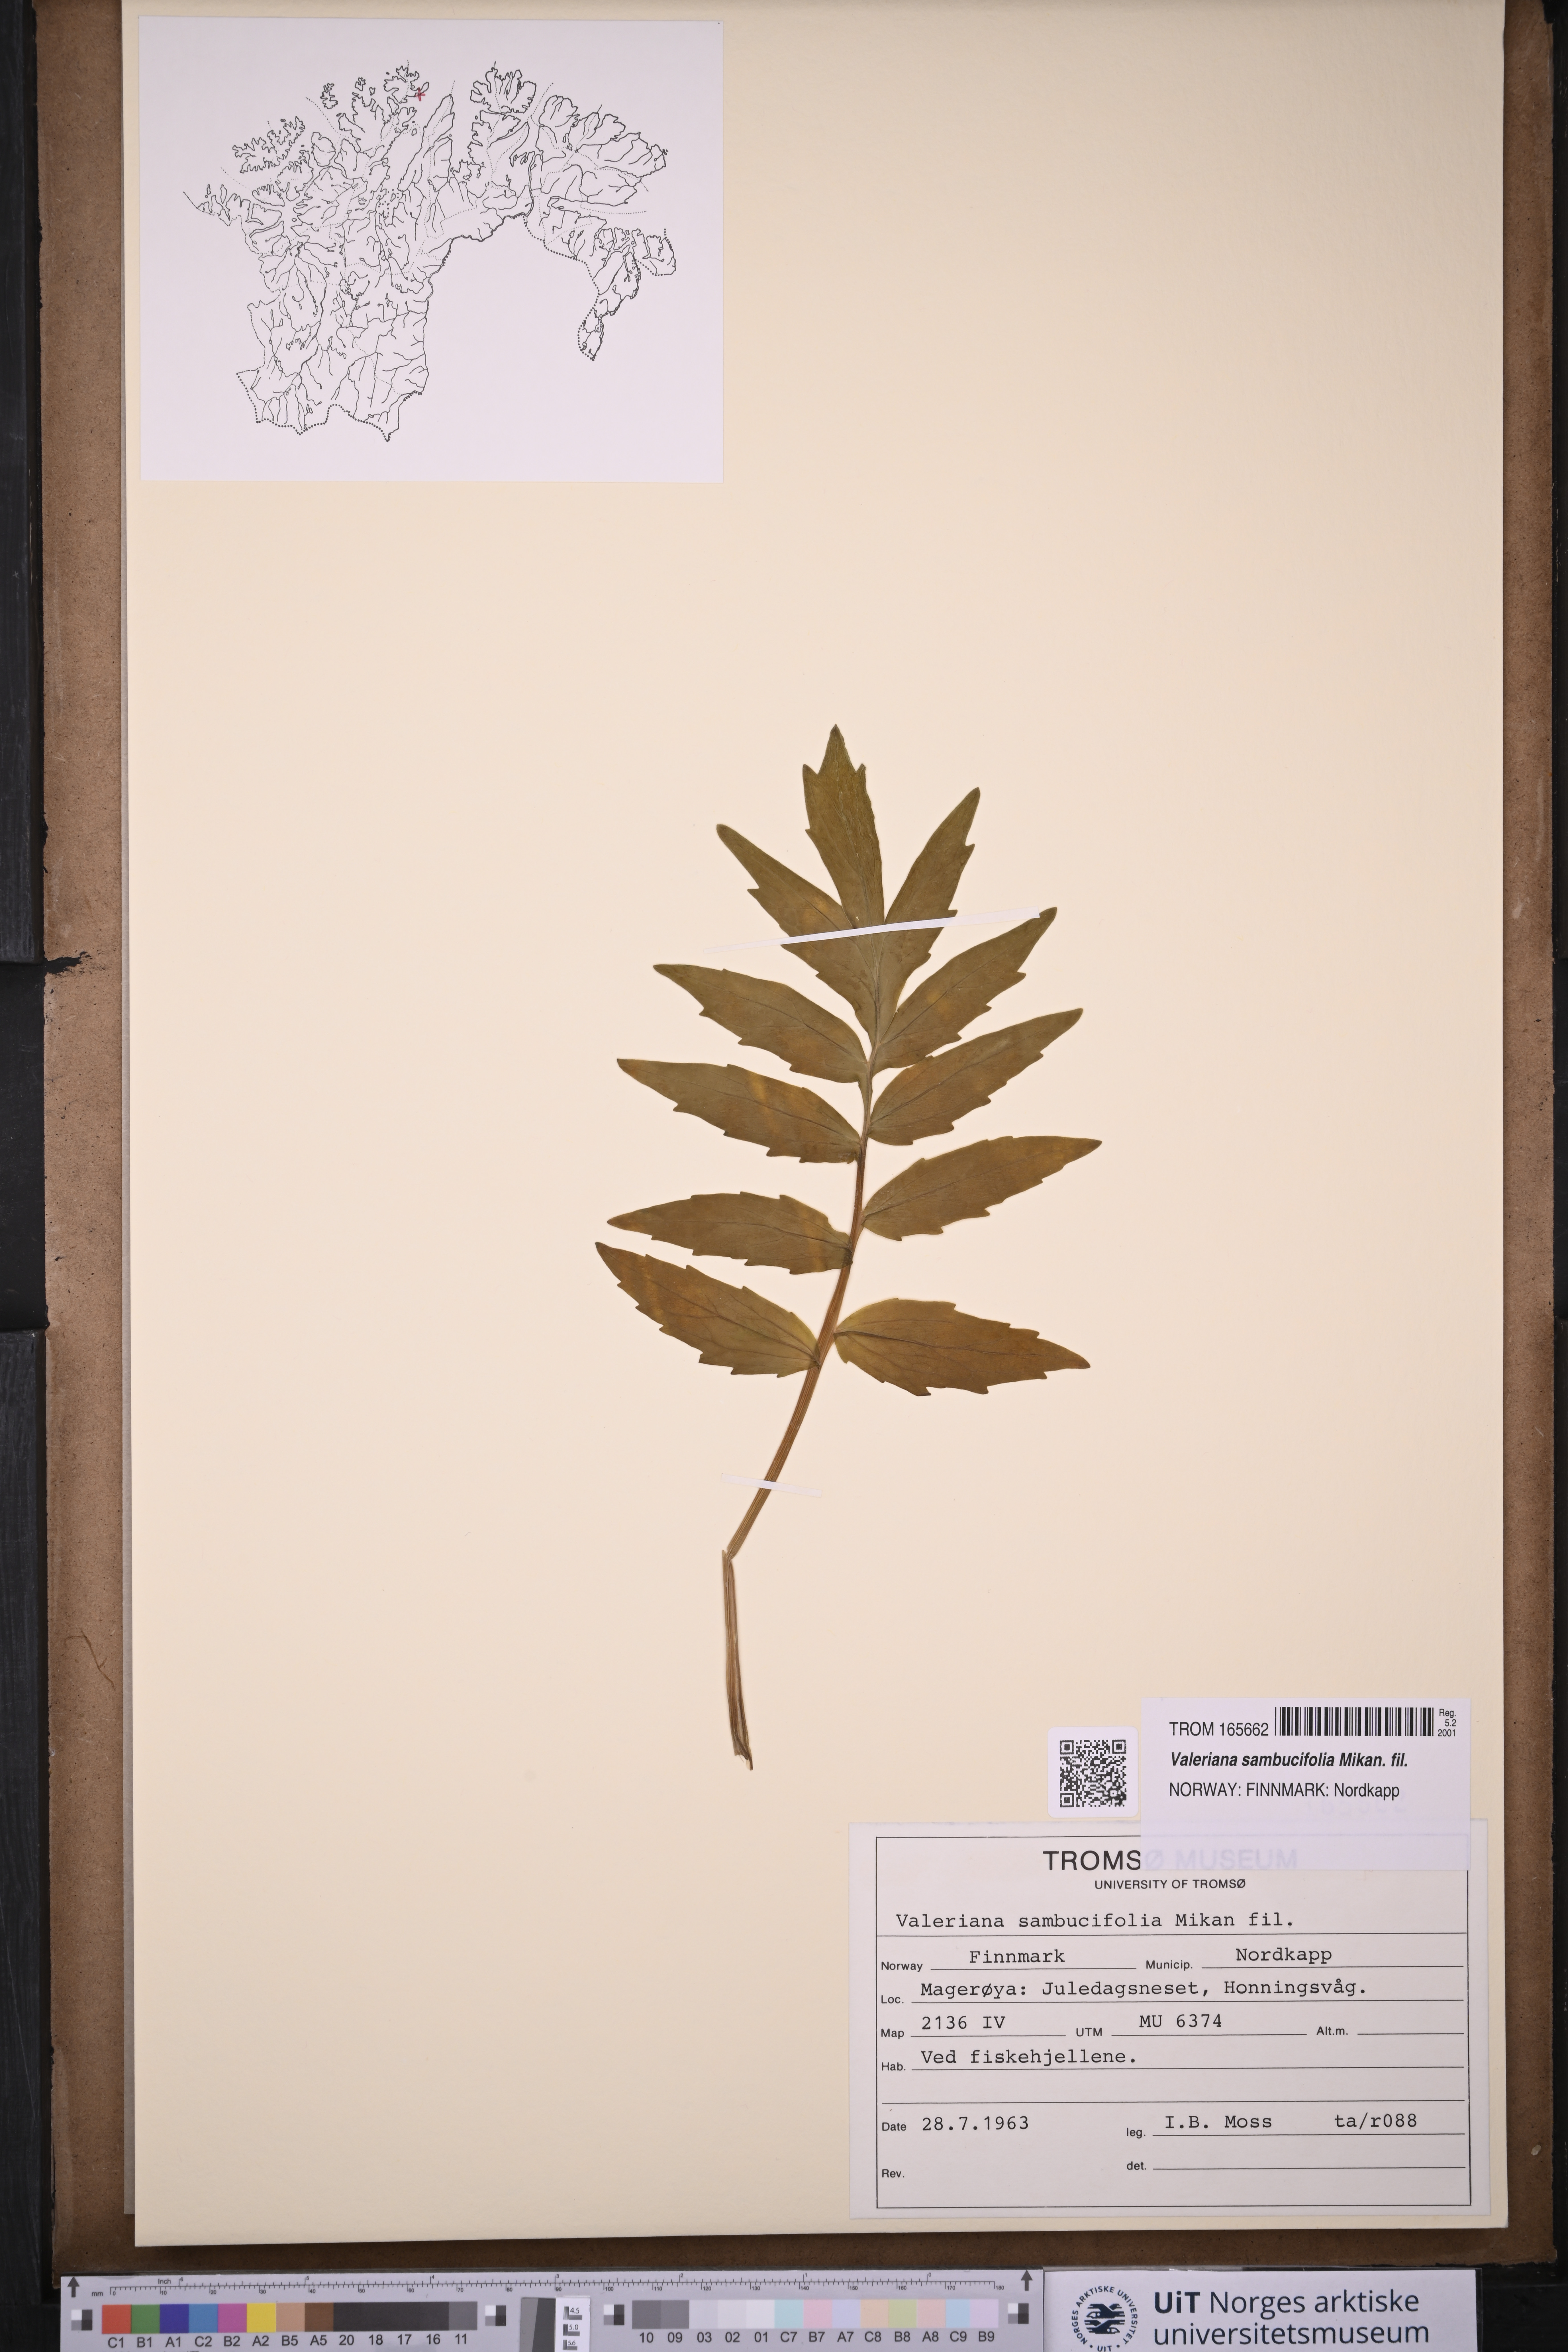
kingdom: Plantae
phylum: Tracheophyta
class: Magnoliopsida
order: Dipsacales
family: Caprifoliaceae
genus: Valeriana
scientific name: Valeriana excelsa
